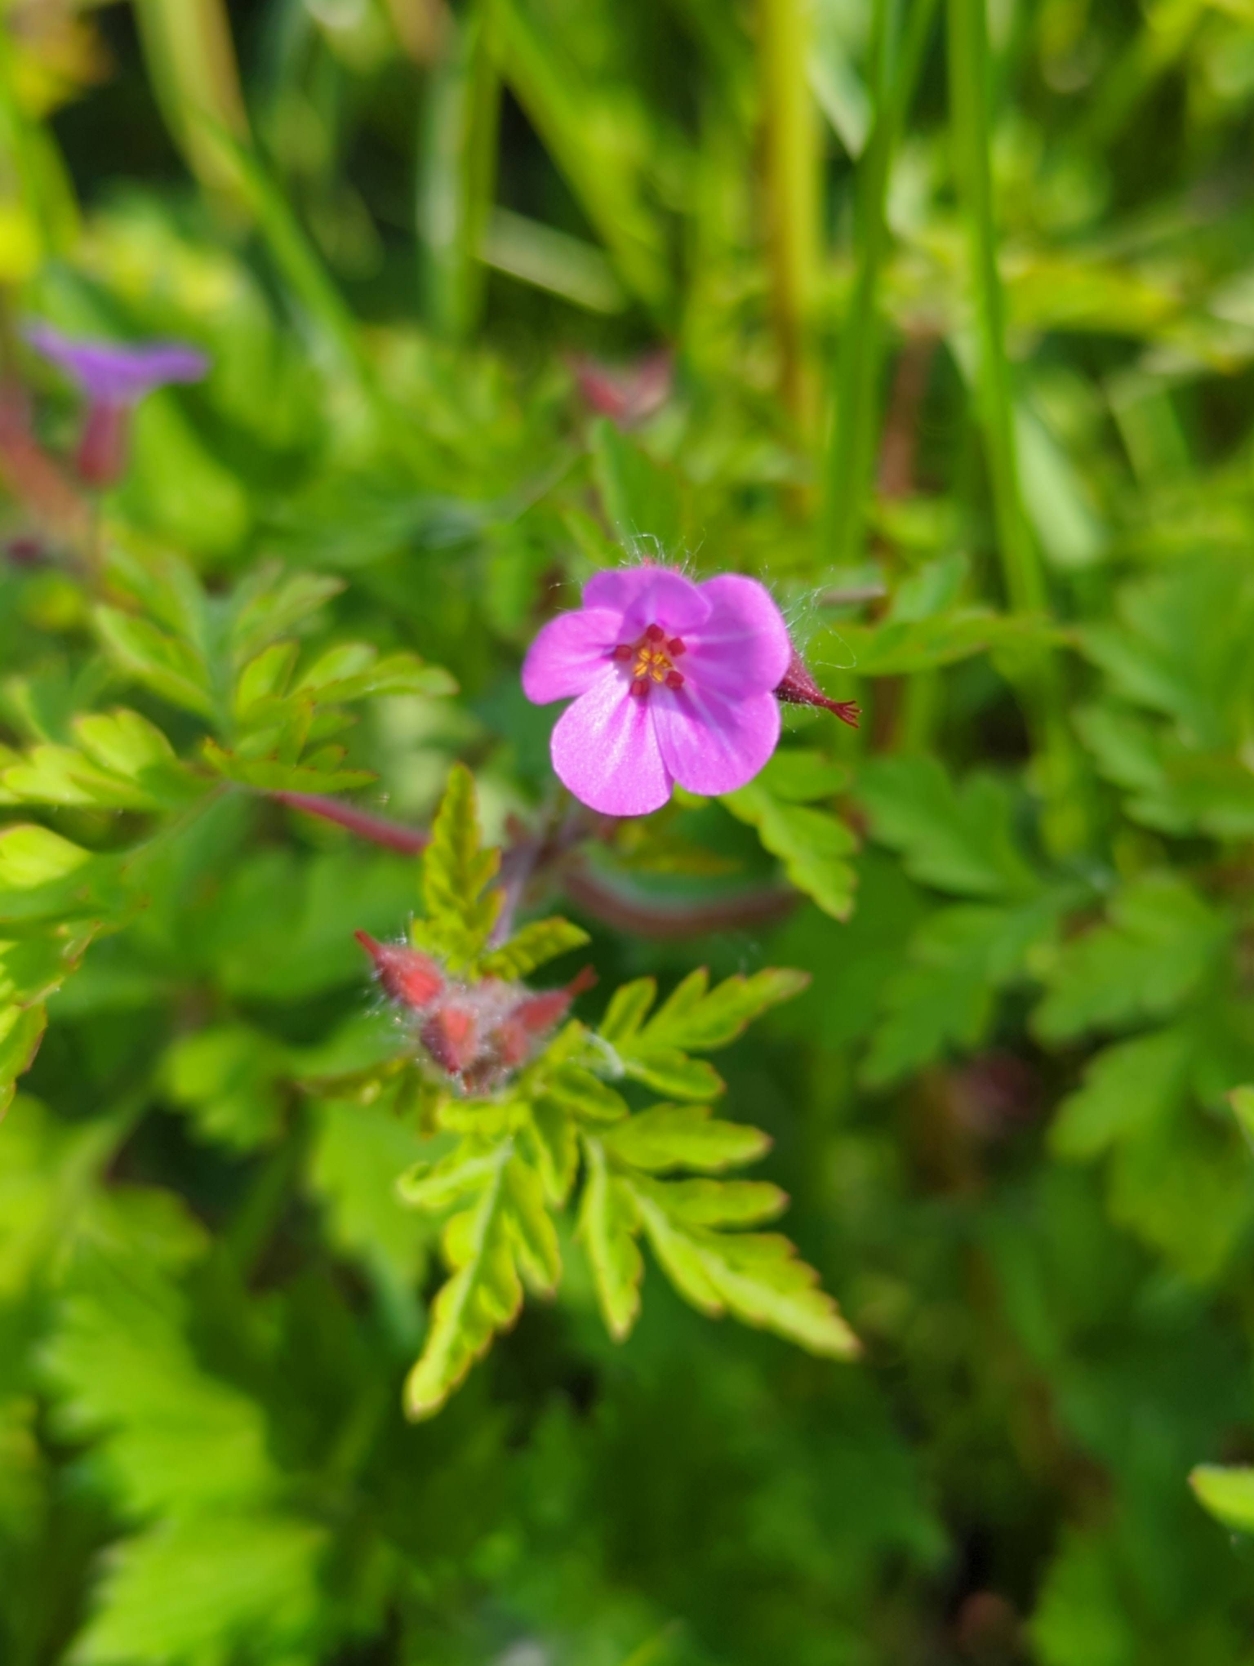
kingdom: Plantae
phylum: Tracheophyta
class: Magnoliopsida
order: Geraniales
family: Geraniaceae
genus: Geranium
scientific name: Geranium robertianum
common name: Stinkende storkenæb
